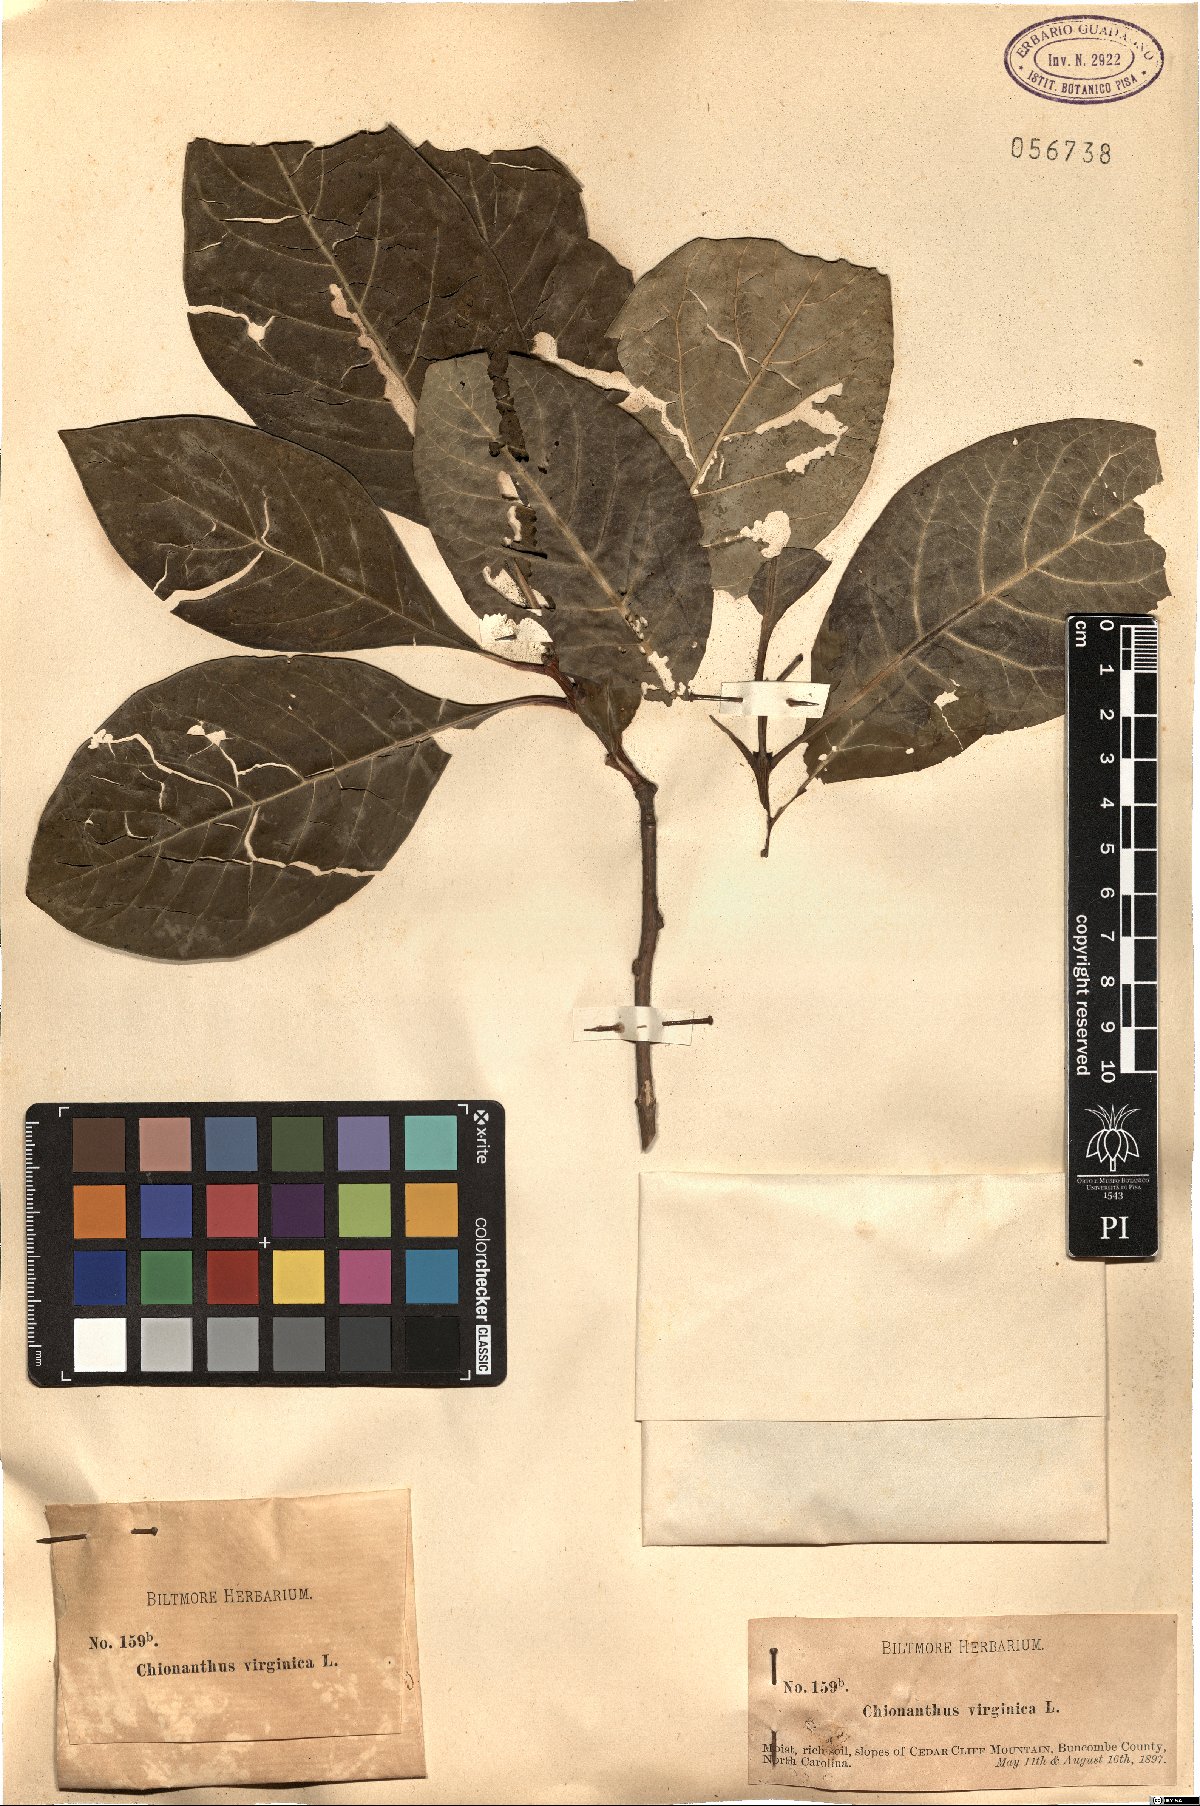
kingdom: Plantae
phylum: Tracheophyta
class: Magnoliopsida
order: Lamiales
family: Oleaceae
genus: Chionanthus
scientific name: Chionanthus virginicus
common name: American fringetree
